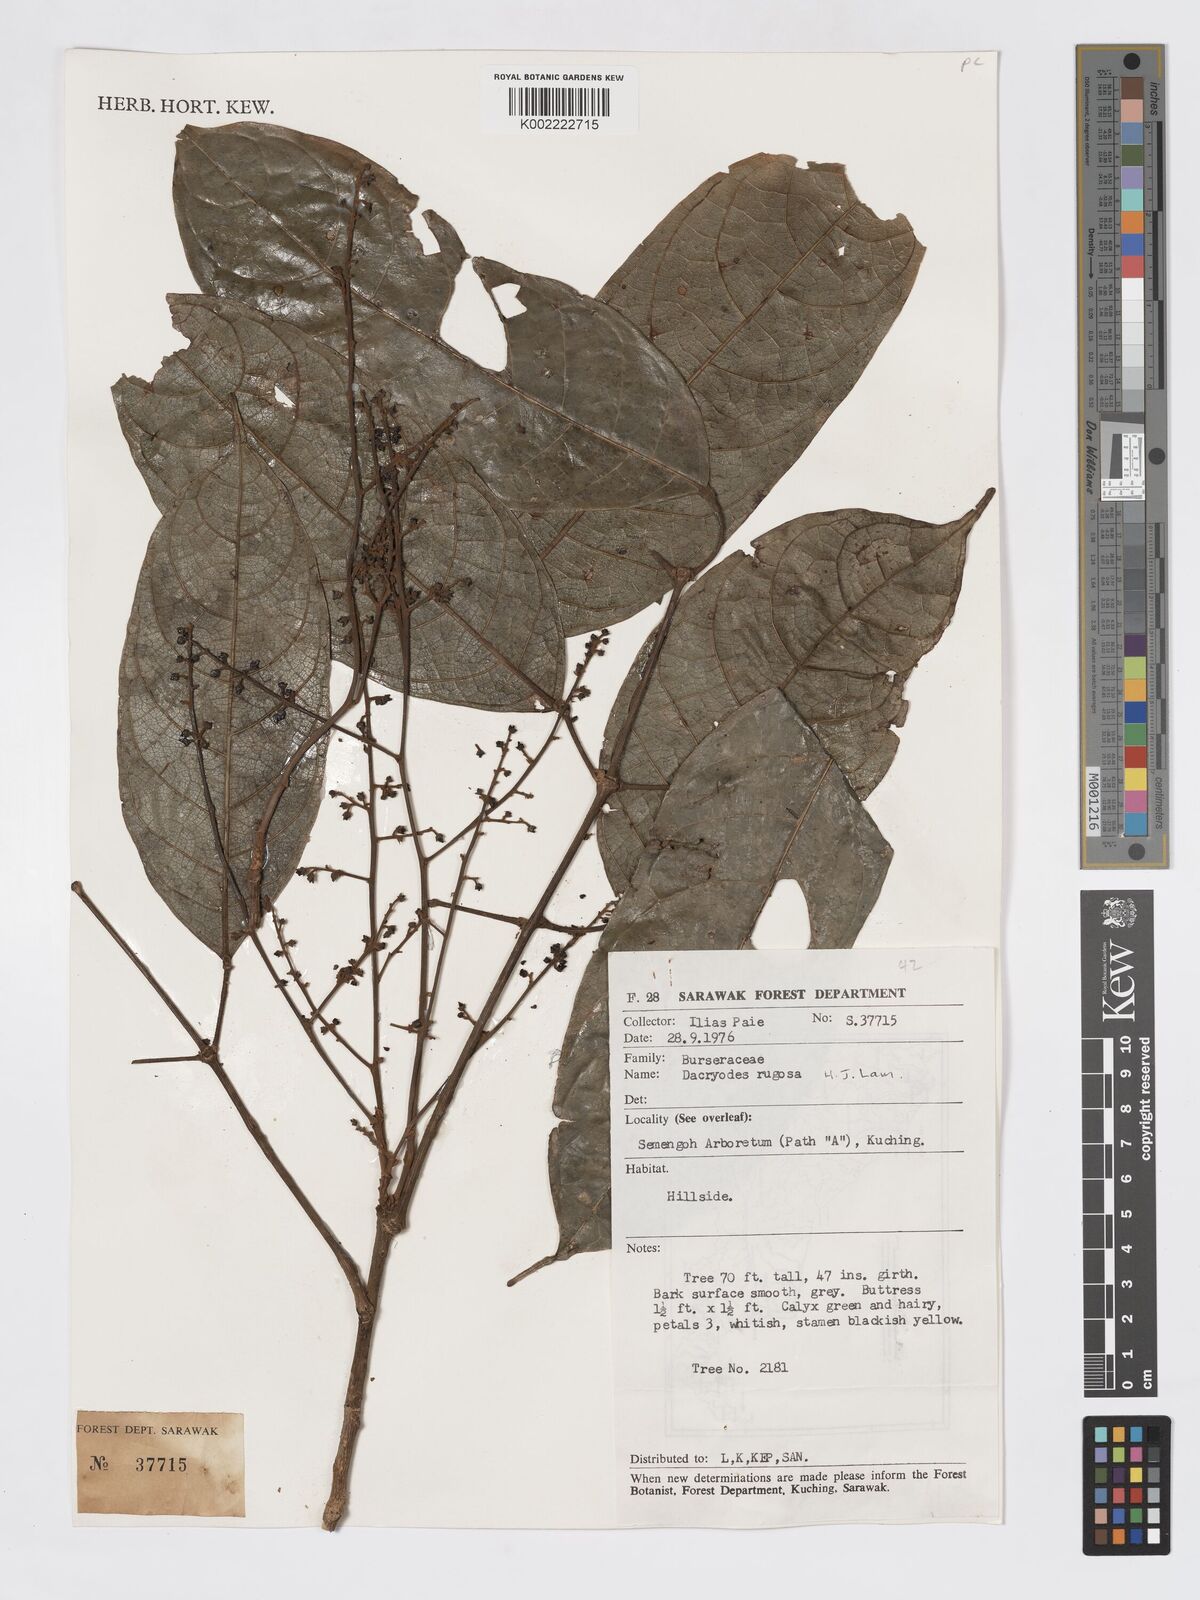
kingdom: Plantae
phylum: Tracheophyta
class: Magnoliopsida
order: Sapindales
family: Burseraceae
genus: Dacryodes
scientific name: Dacryodes rugosa
